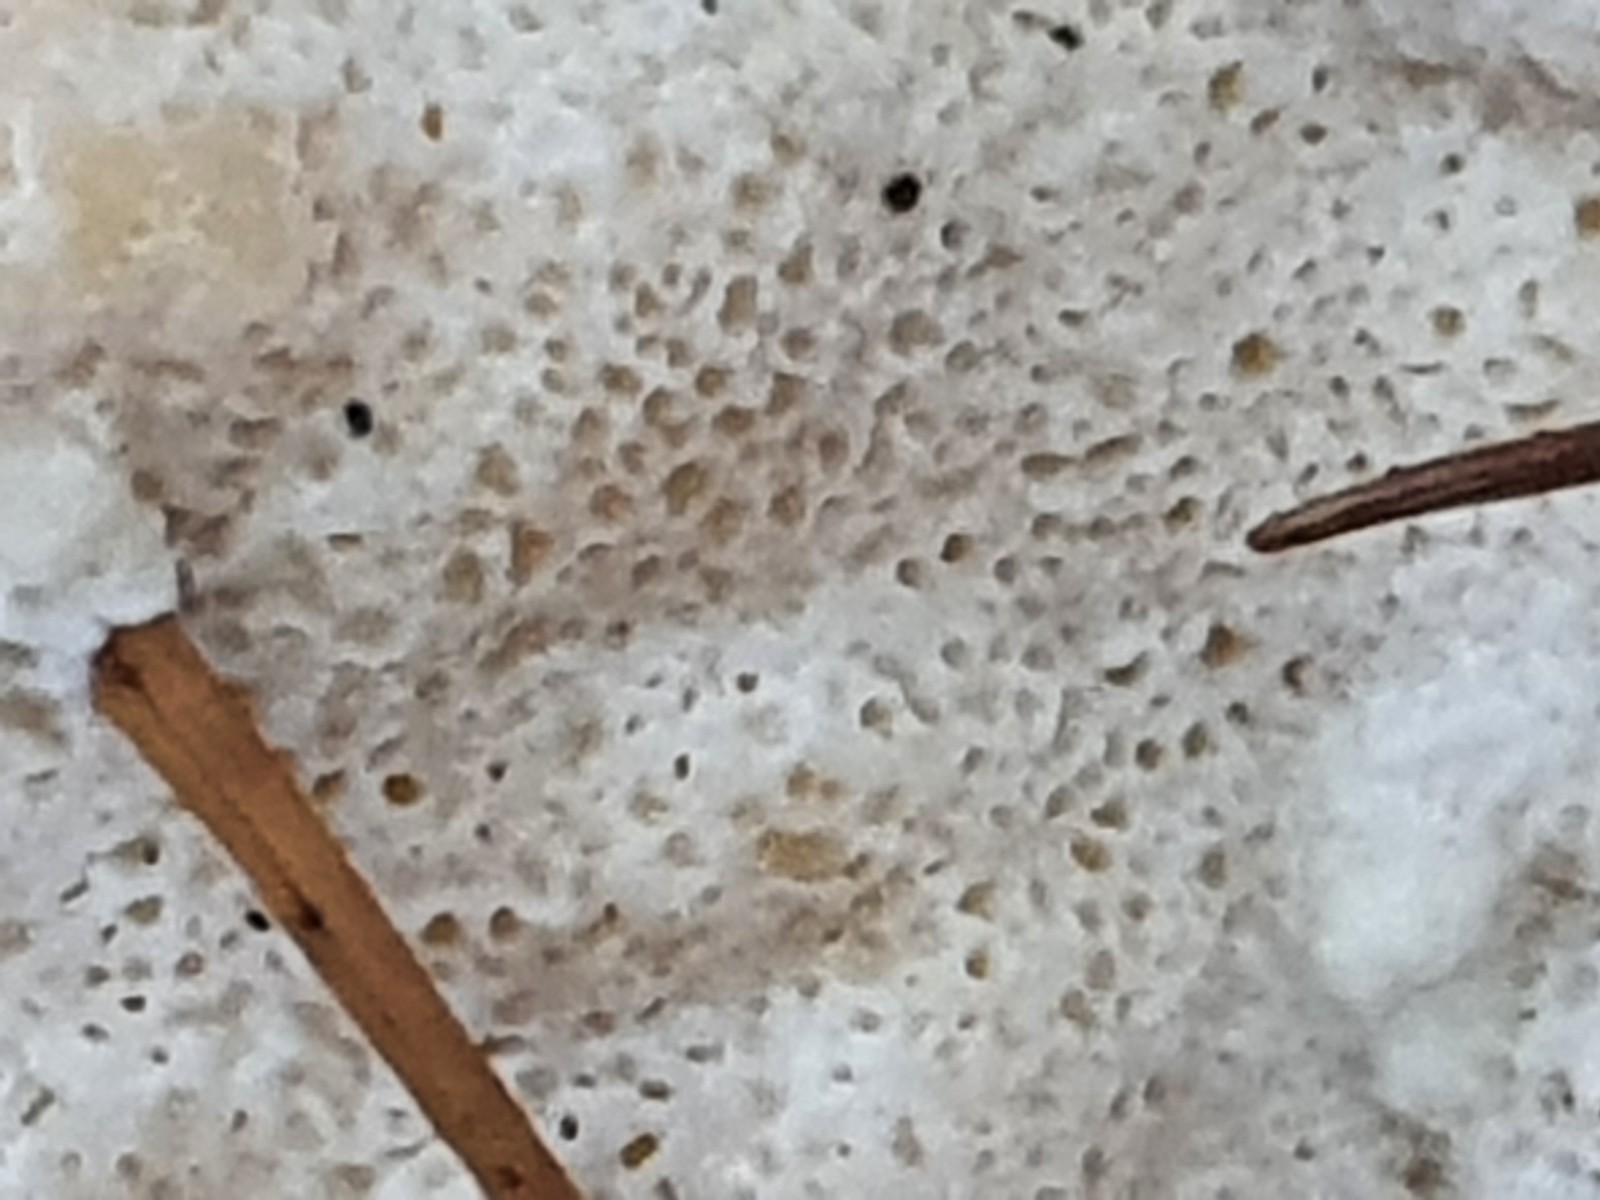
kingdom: Fungi
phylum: Basidiomycota
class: Agaricomycetes
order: Polyporales
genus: Amaropostia
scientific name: Amaropostia stiptica
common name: bitter kødporesvamp
